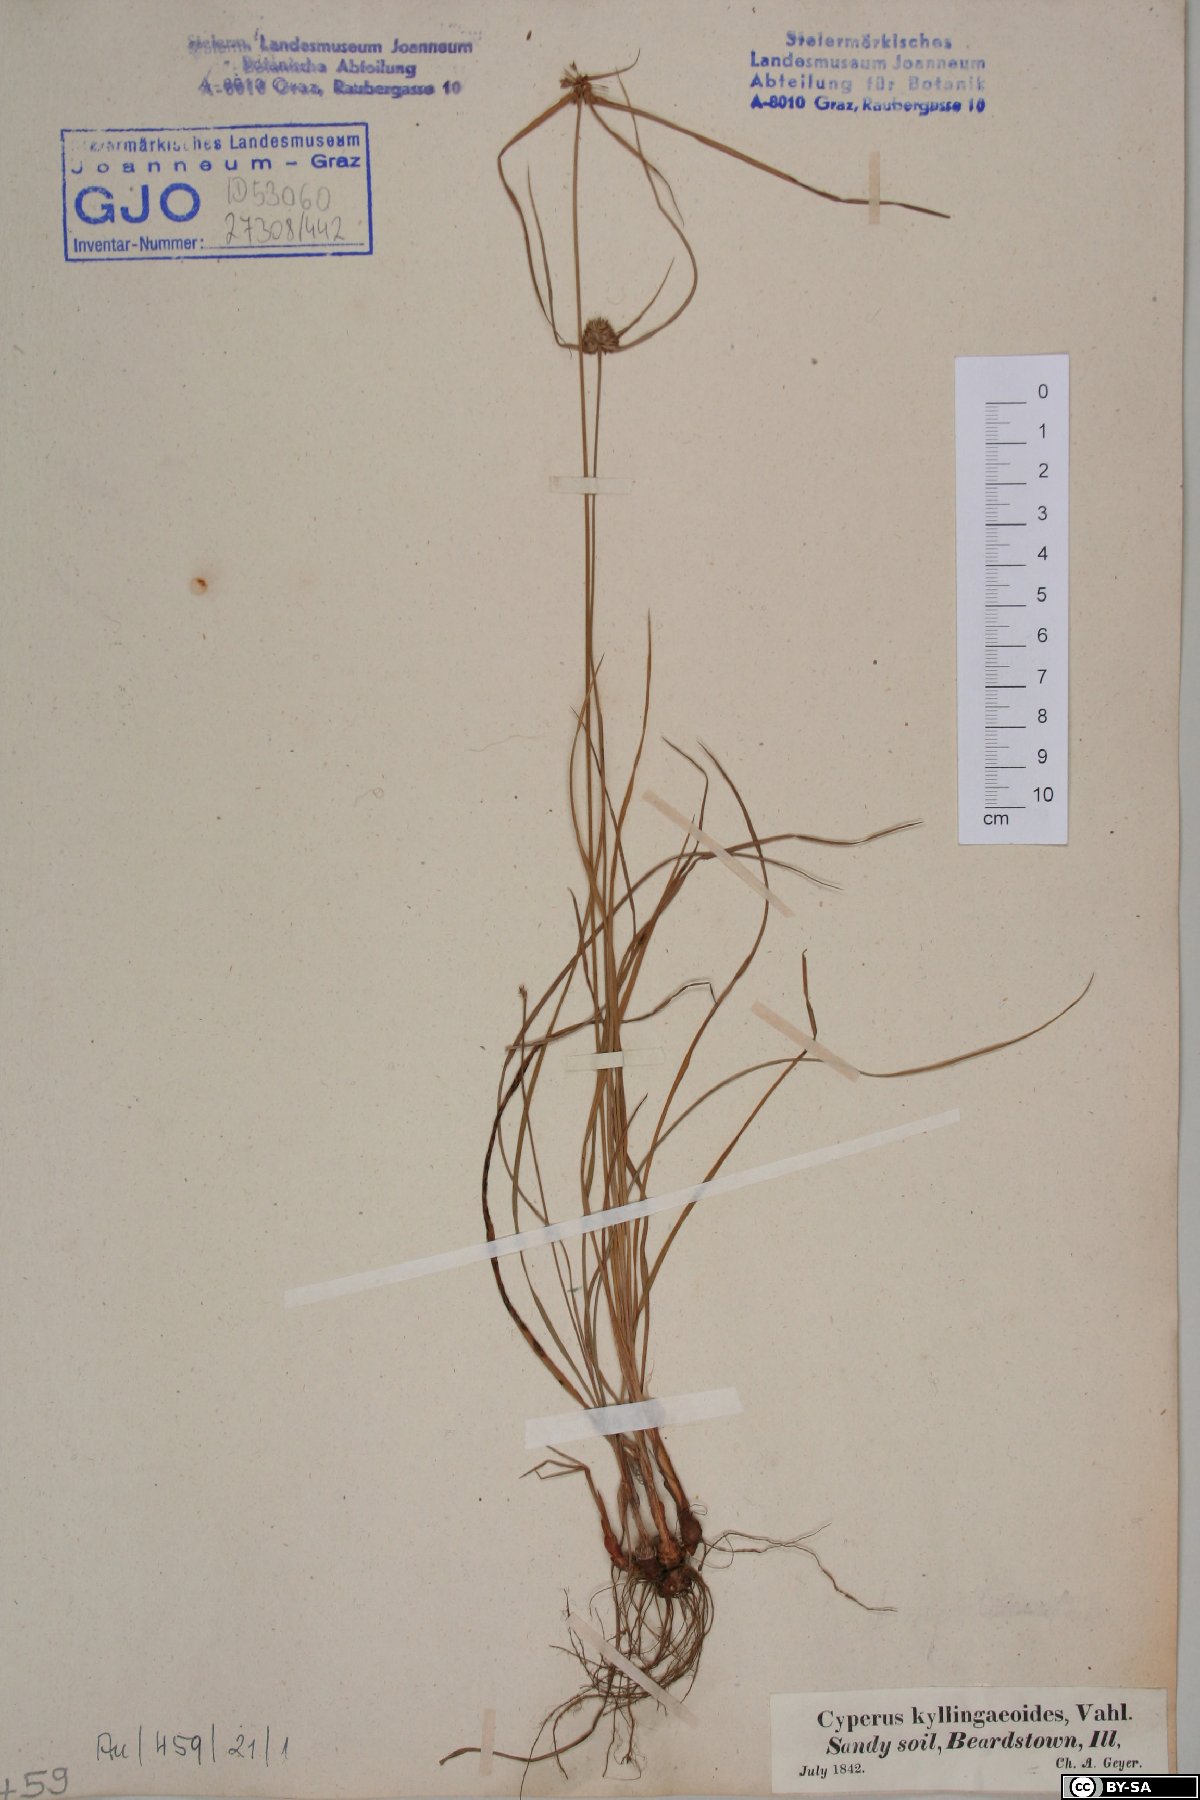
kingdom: Plantae
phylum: Tracheophyta
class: Liliopsida
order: Poales
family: Cyperaceae
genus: Cyperus
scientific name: Cyperus dubius
